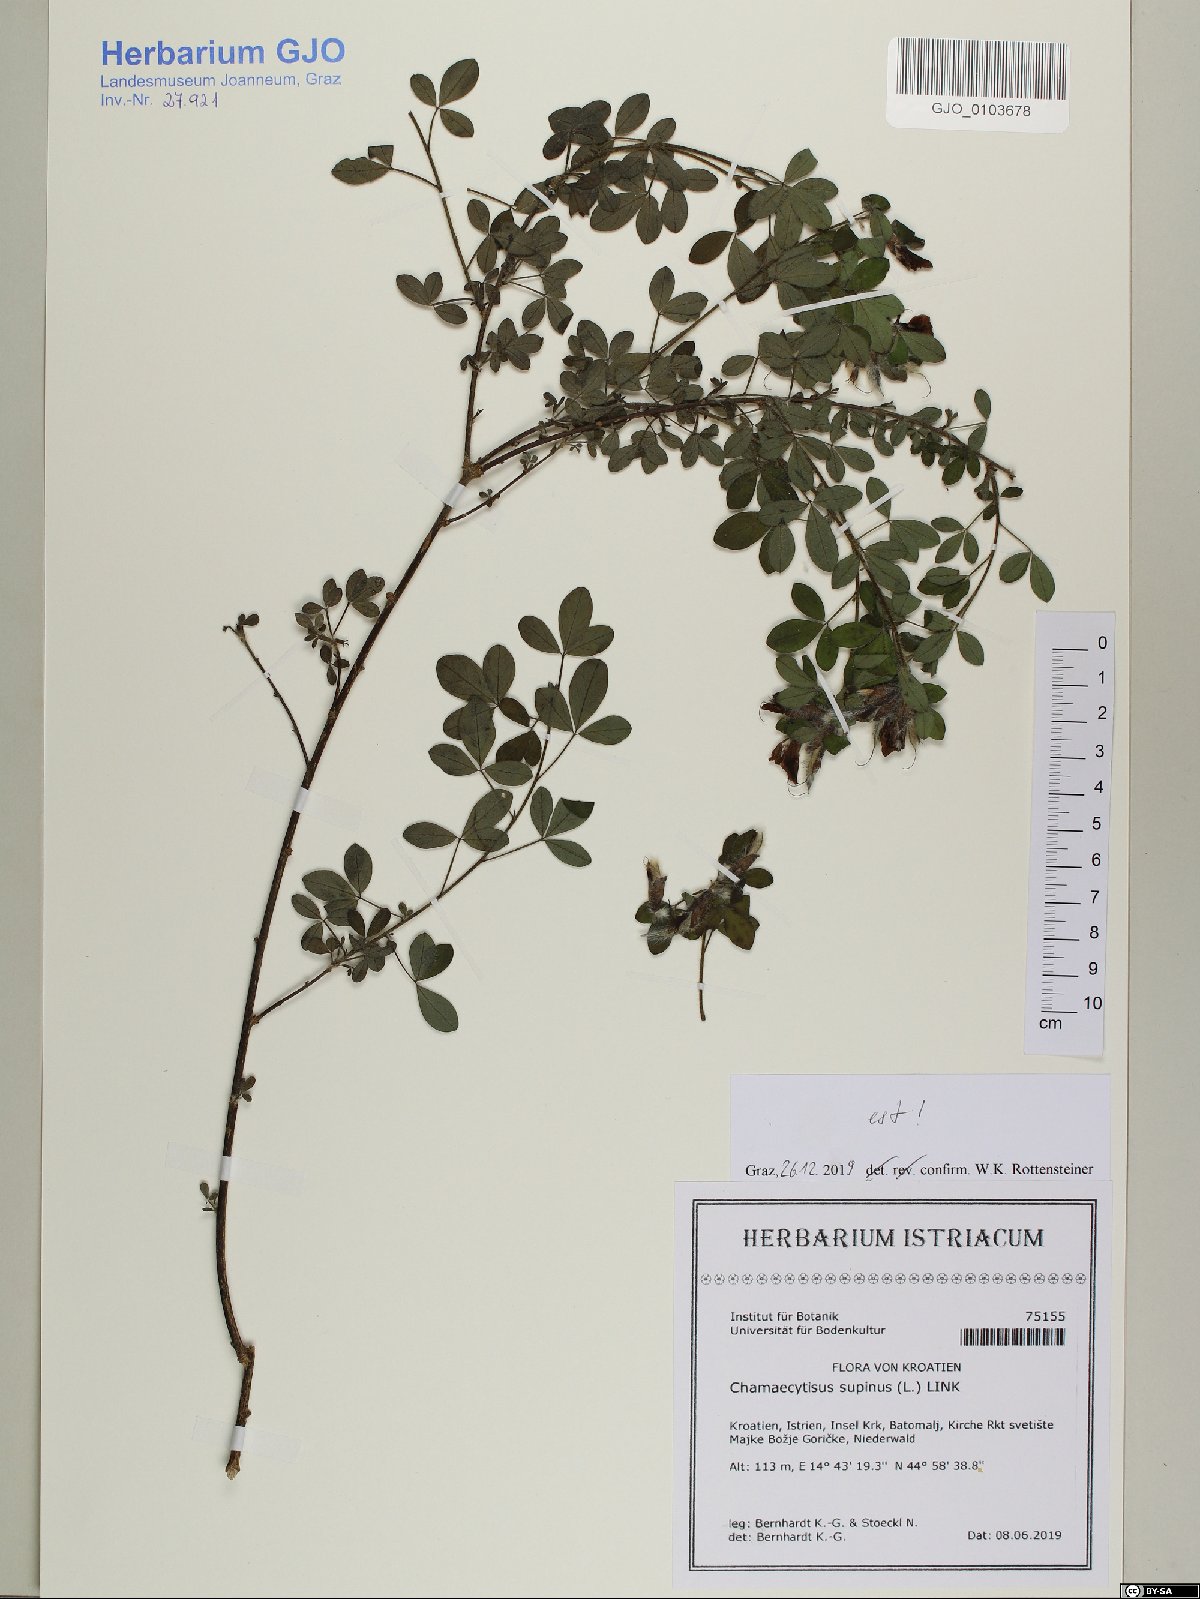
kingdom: Plantae
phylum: Tracheophyta
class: Magnoliopsida
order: Fabales
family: Fabaceae
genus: Chamaecytisus
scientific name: Chamaecytisus supinus
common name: Clustered broom
